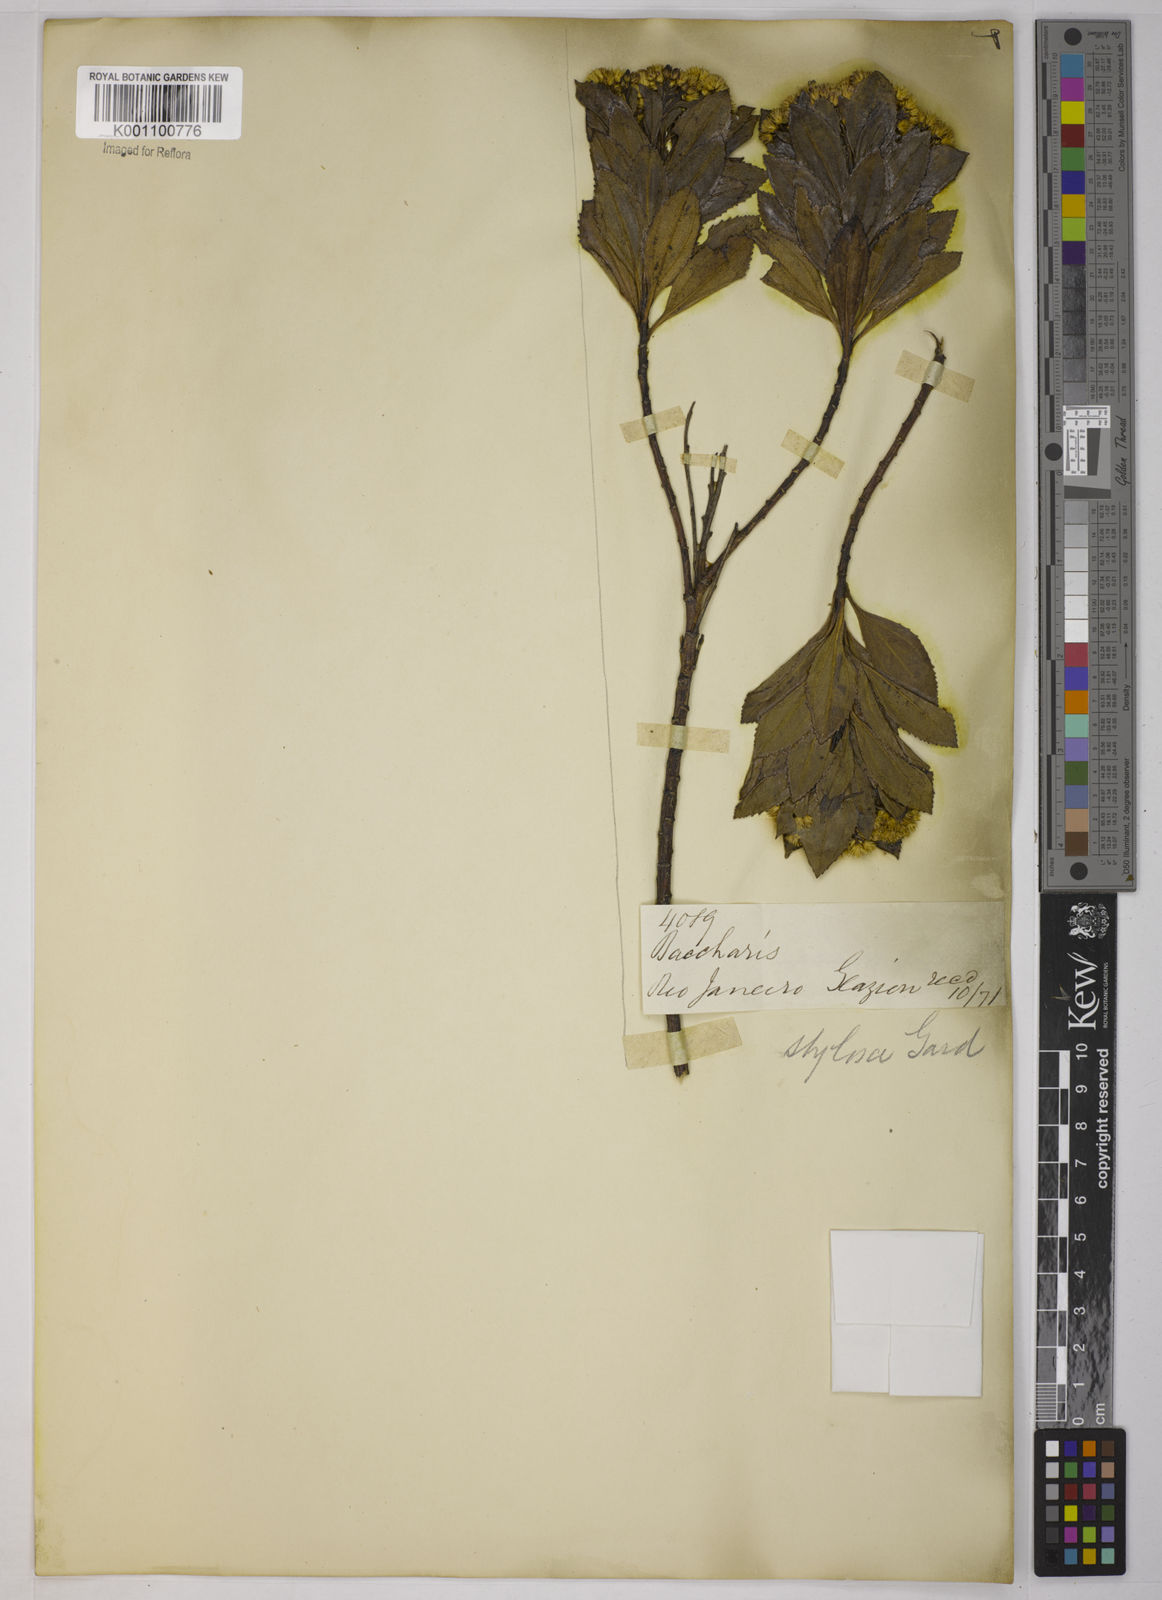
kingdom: Plantae
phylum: Tracheophyta
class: Magnoliopsida
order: Asterales
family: Asteraceae
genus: Baccharis
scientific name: Baccharis stylosa
